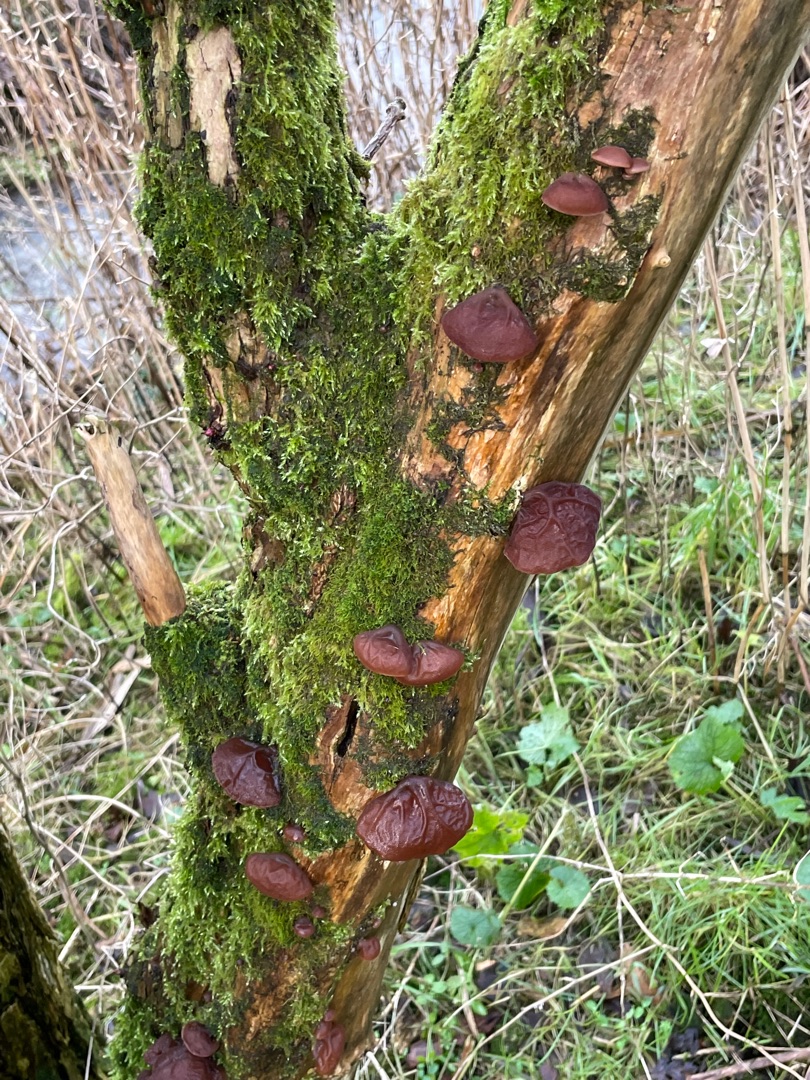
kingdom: Fungi
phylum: Basidiomycota
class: Agaricomycetes
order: Auriculariales
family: Auriculariaceae
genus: Auricularia
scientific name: Auricularia auricula-judae
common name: Almindelig judasøre
